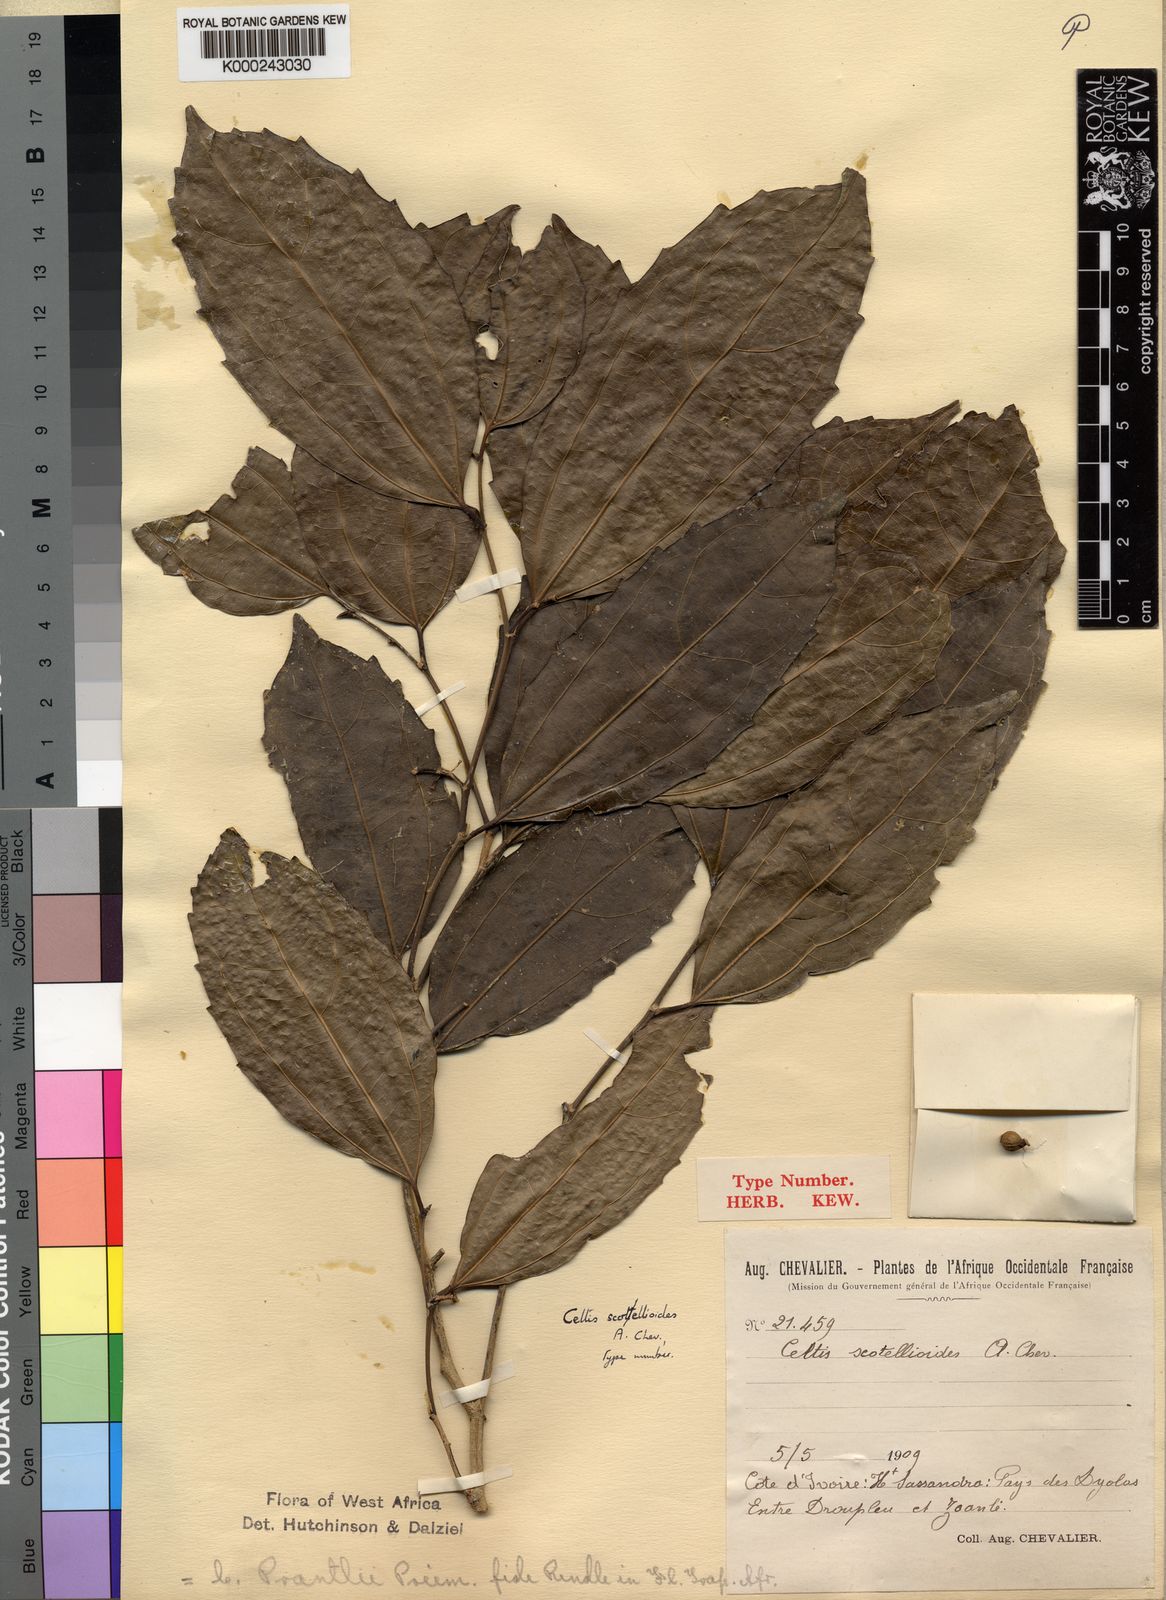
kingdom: Plantae
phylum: Tracheophyta
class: Magnoliopsida
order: Rosales
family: Cannabaceae
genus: Celtis
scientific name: Celtis philippensis
